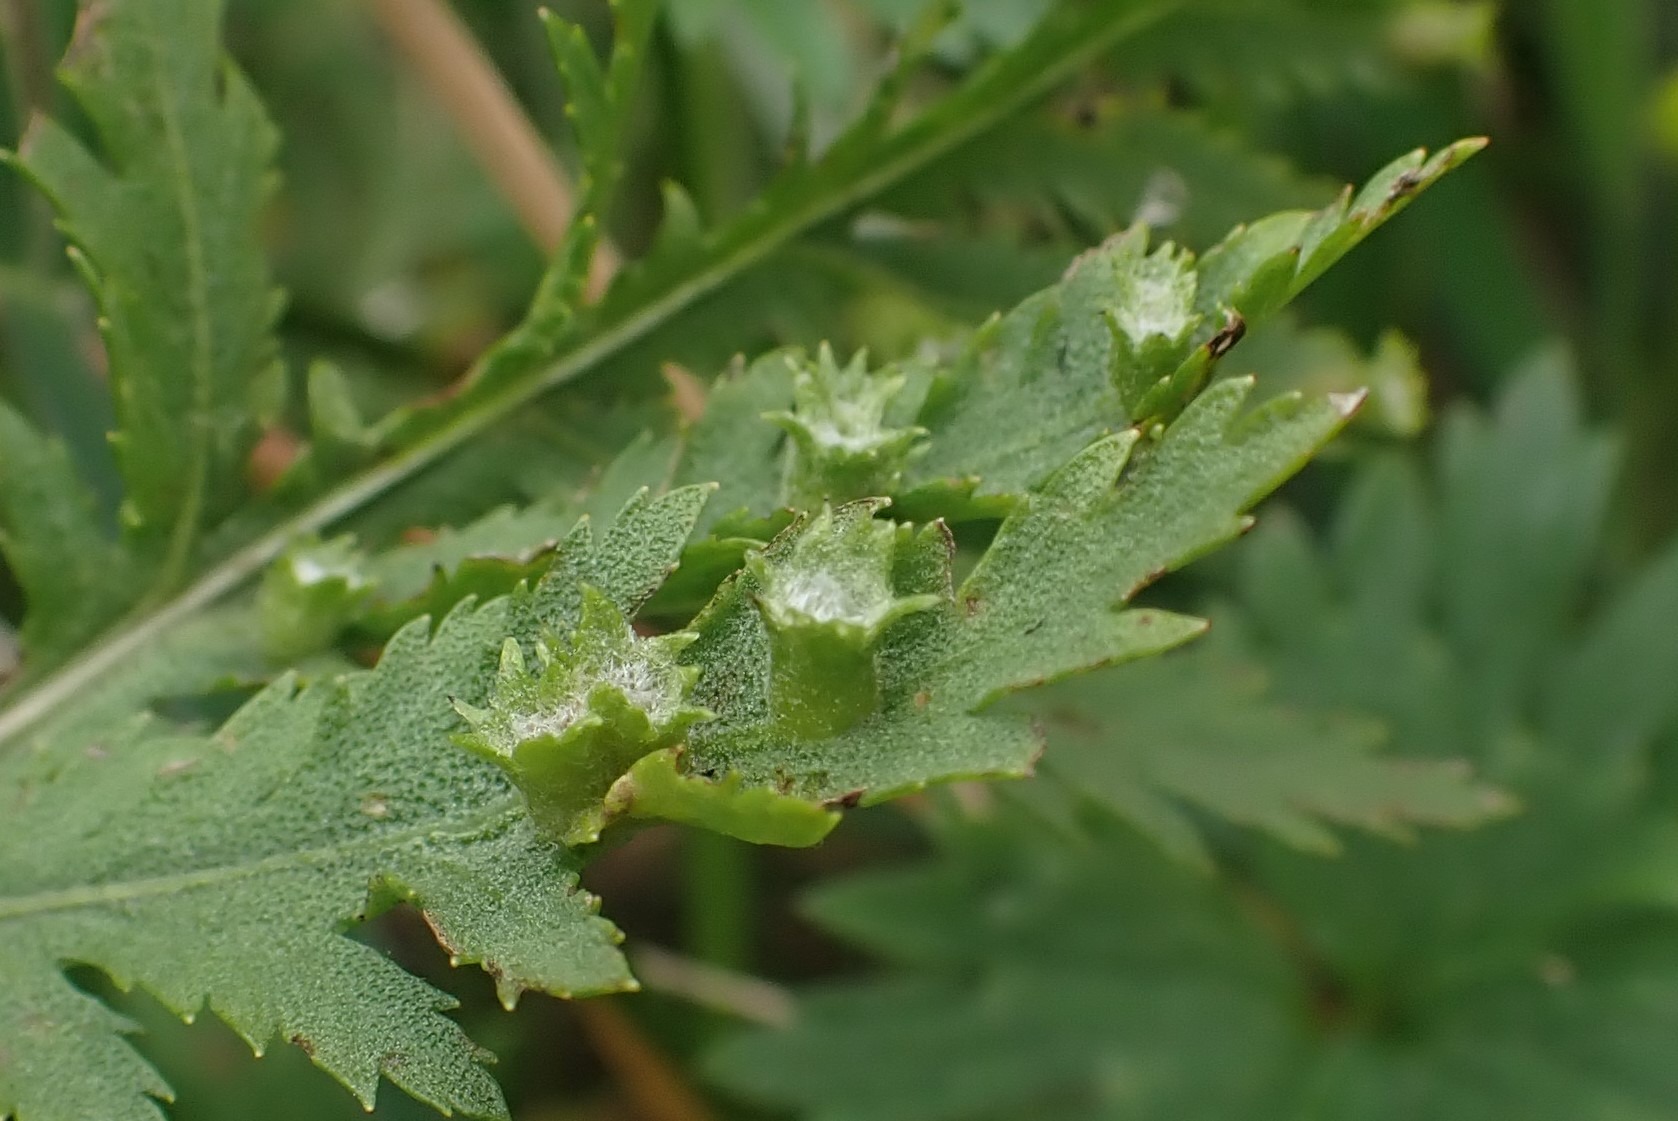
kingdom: Animalia
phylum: Arthropoda
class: Insecta
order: Diptera
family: Cecidomyiidae
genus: Rhopalomyia
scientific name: Rhopalomyia tanaceticolus
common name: Rejnfangalmyg
